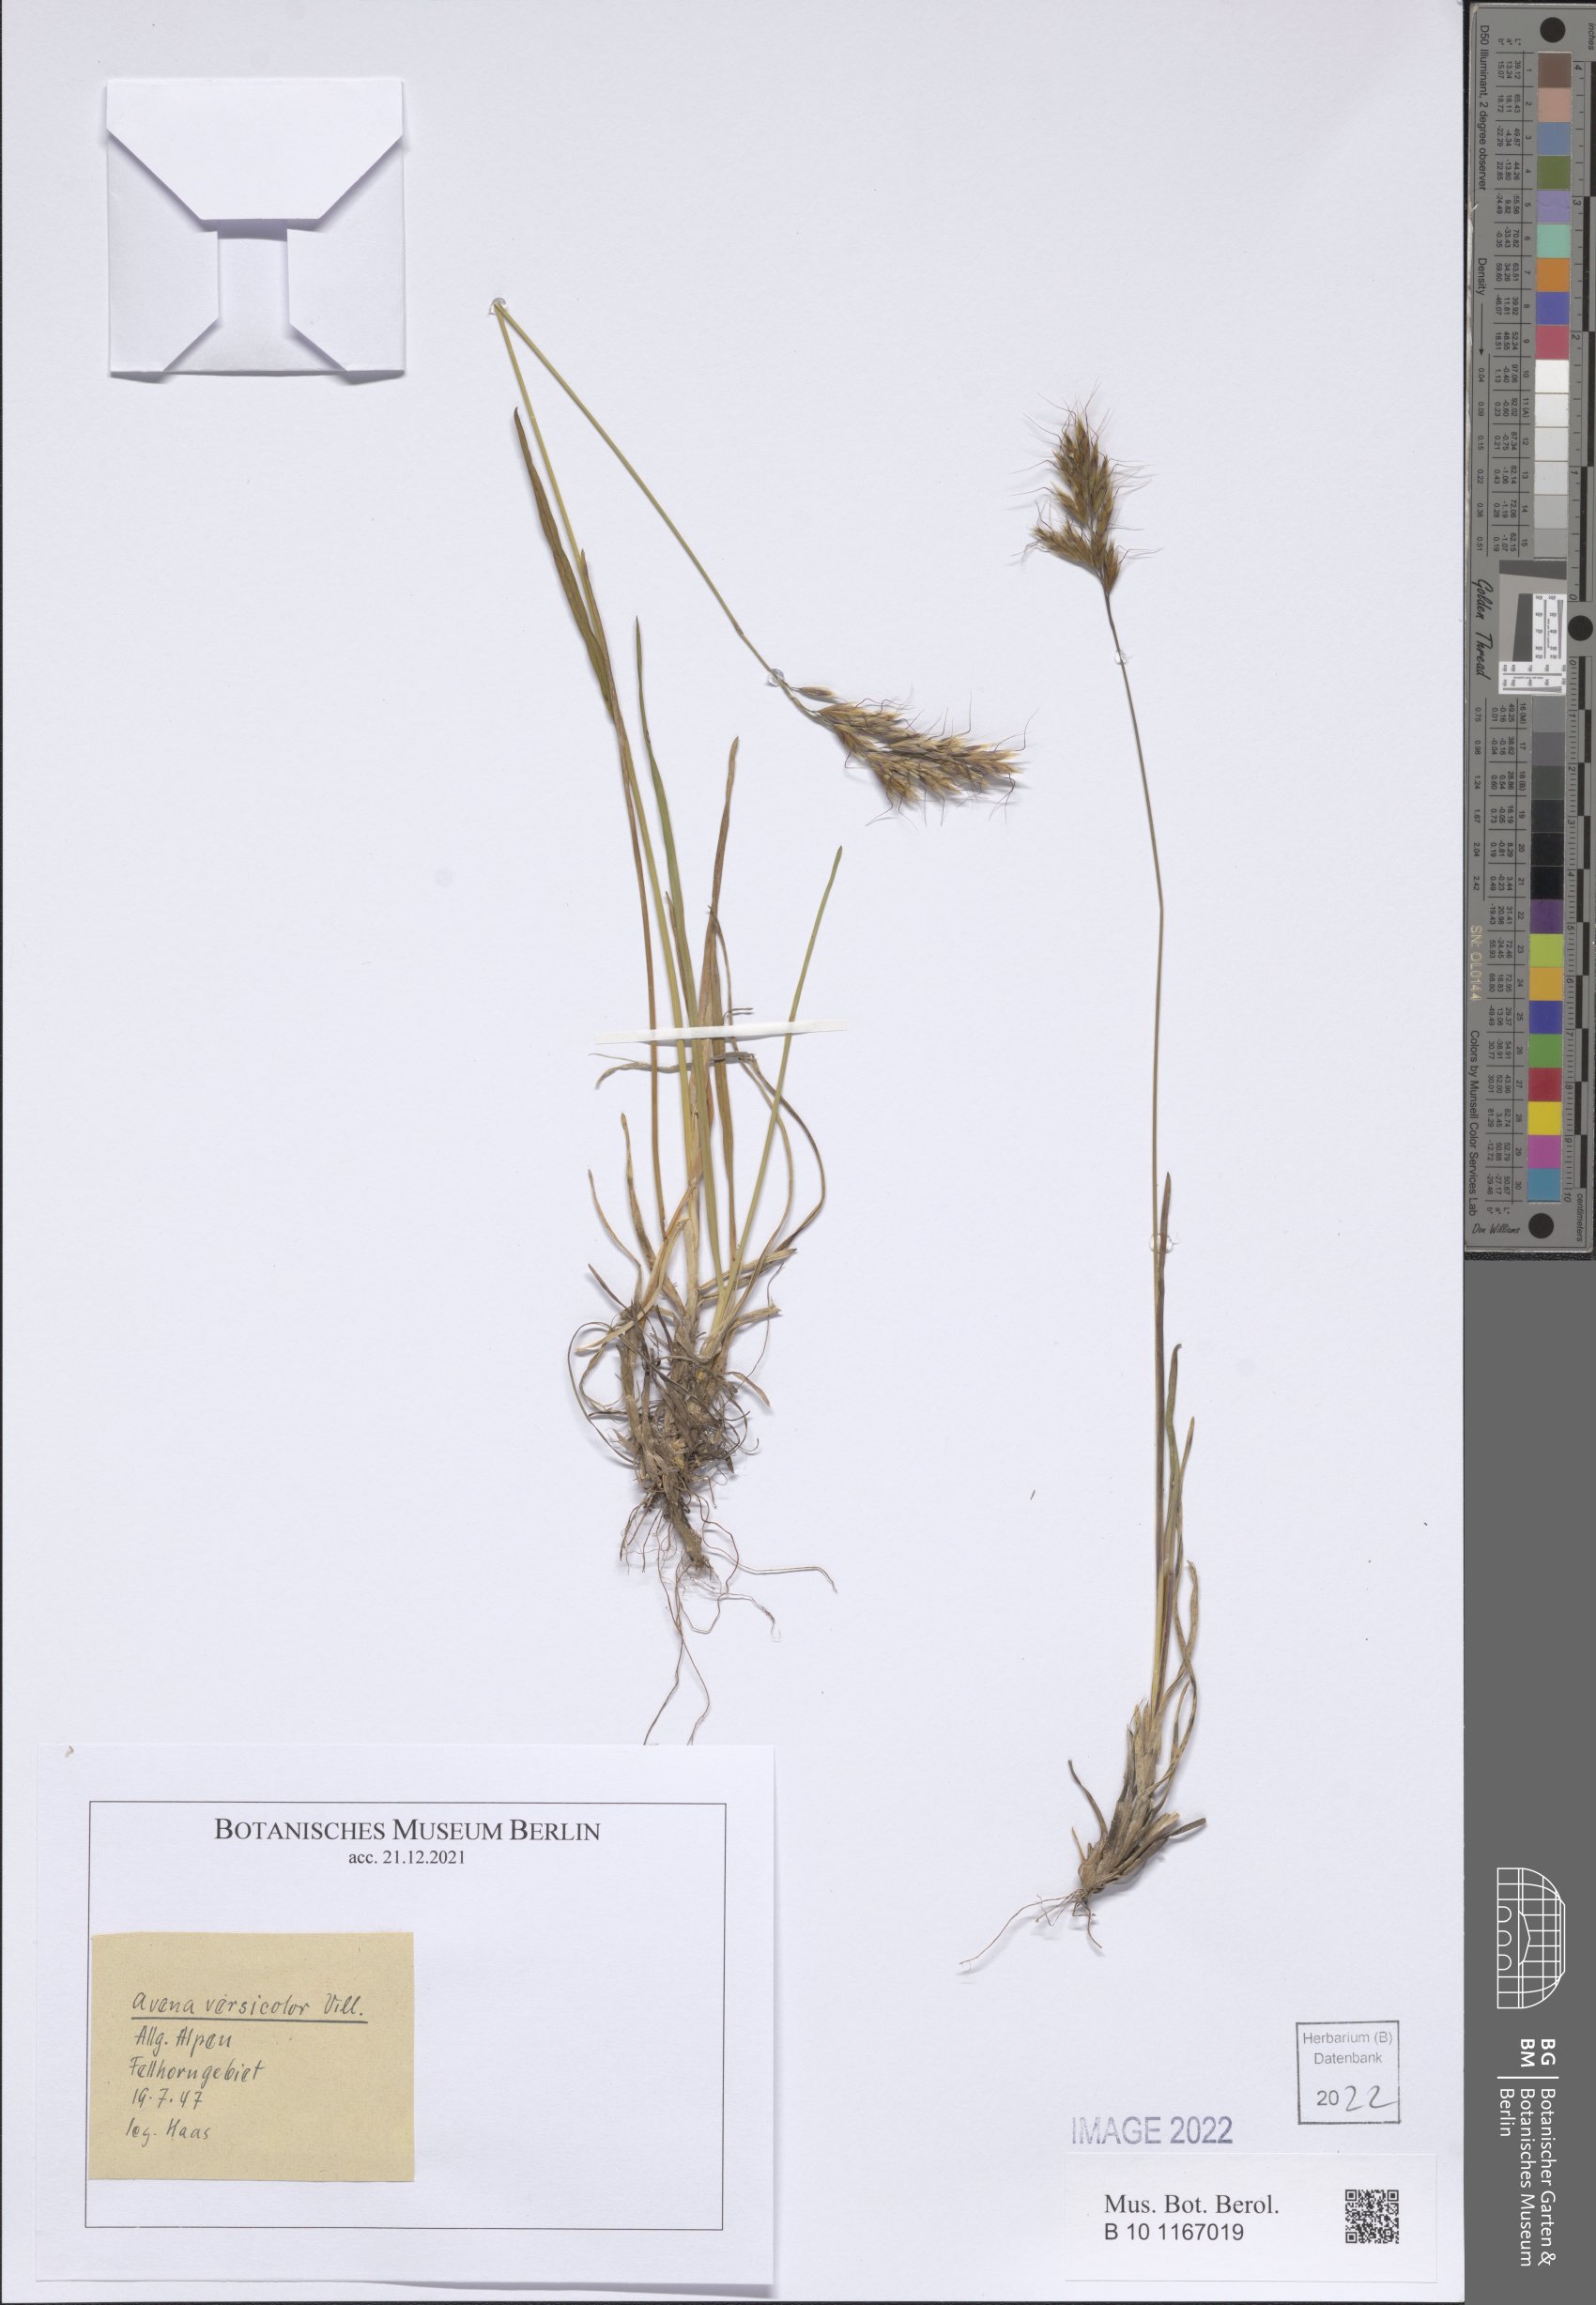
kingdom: Plantae
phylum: Tracheophyta
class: Liliopsida
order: Poales
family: Poaceae
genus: Helictochloa
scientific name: Helictochloa versicolor
